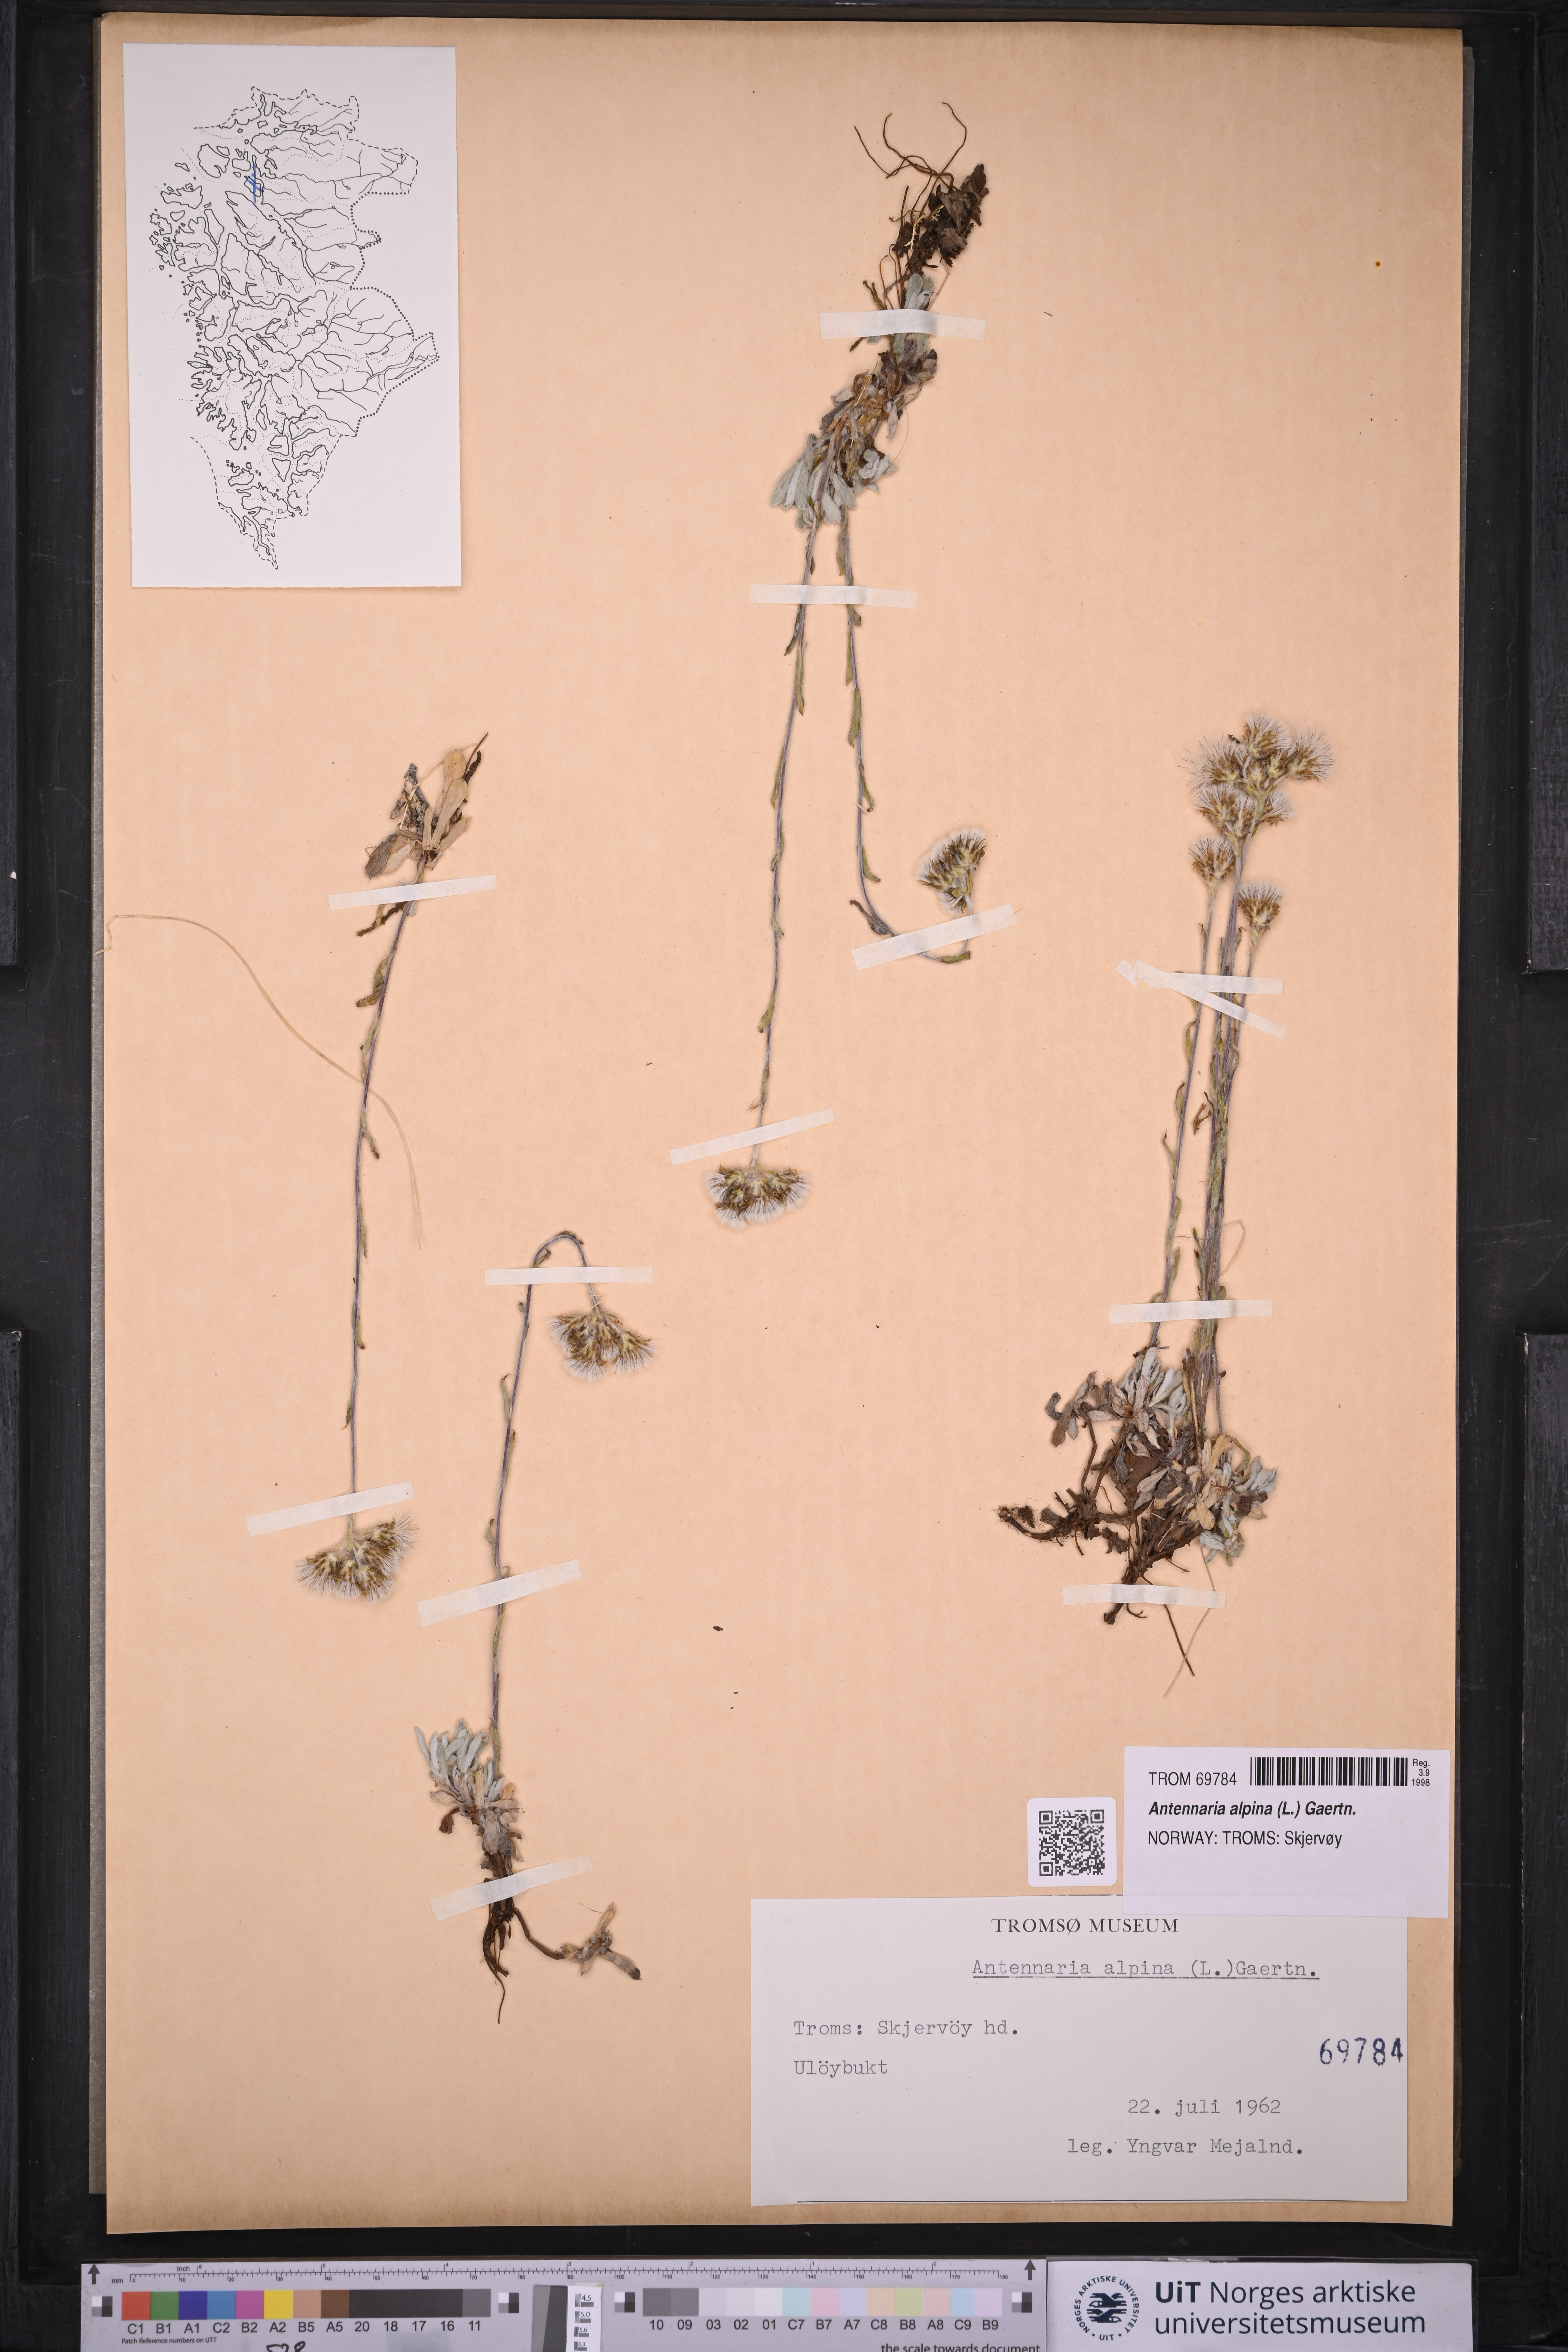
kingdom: Plantae
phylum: Tracheophyta
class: Magnoliopsida
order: Asterales
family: Asteraceae
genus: Antennaria
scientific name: Antennaria alpina
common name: Alpine pussytoes
